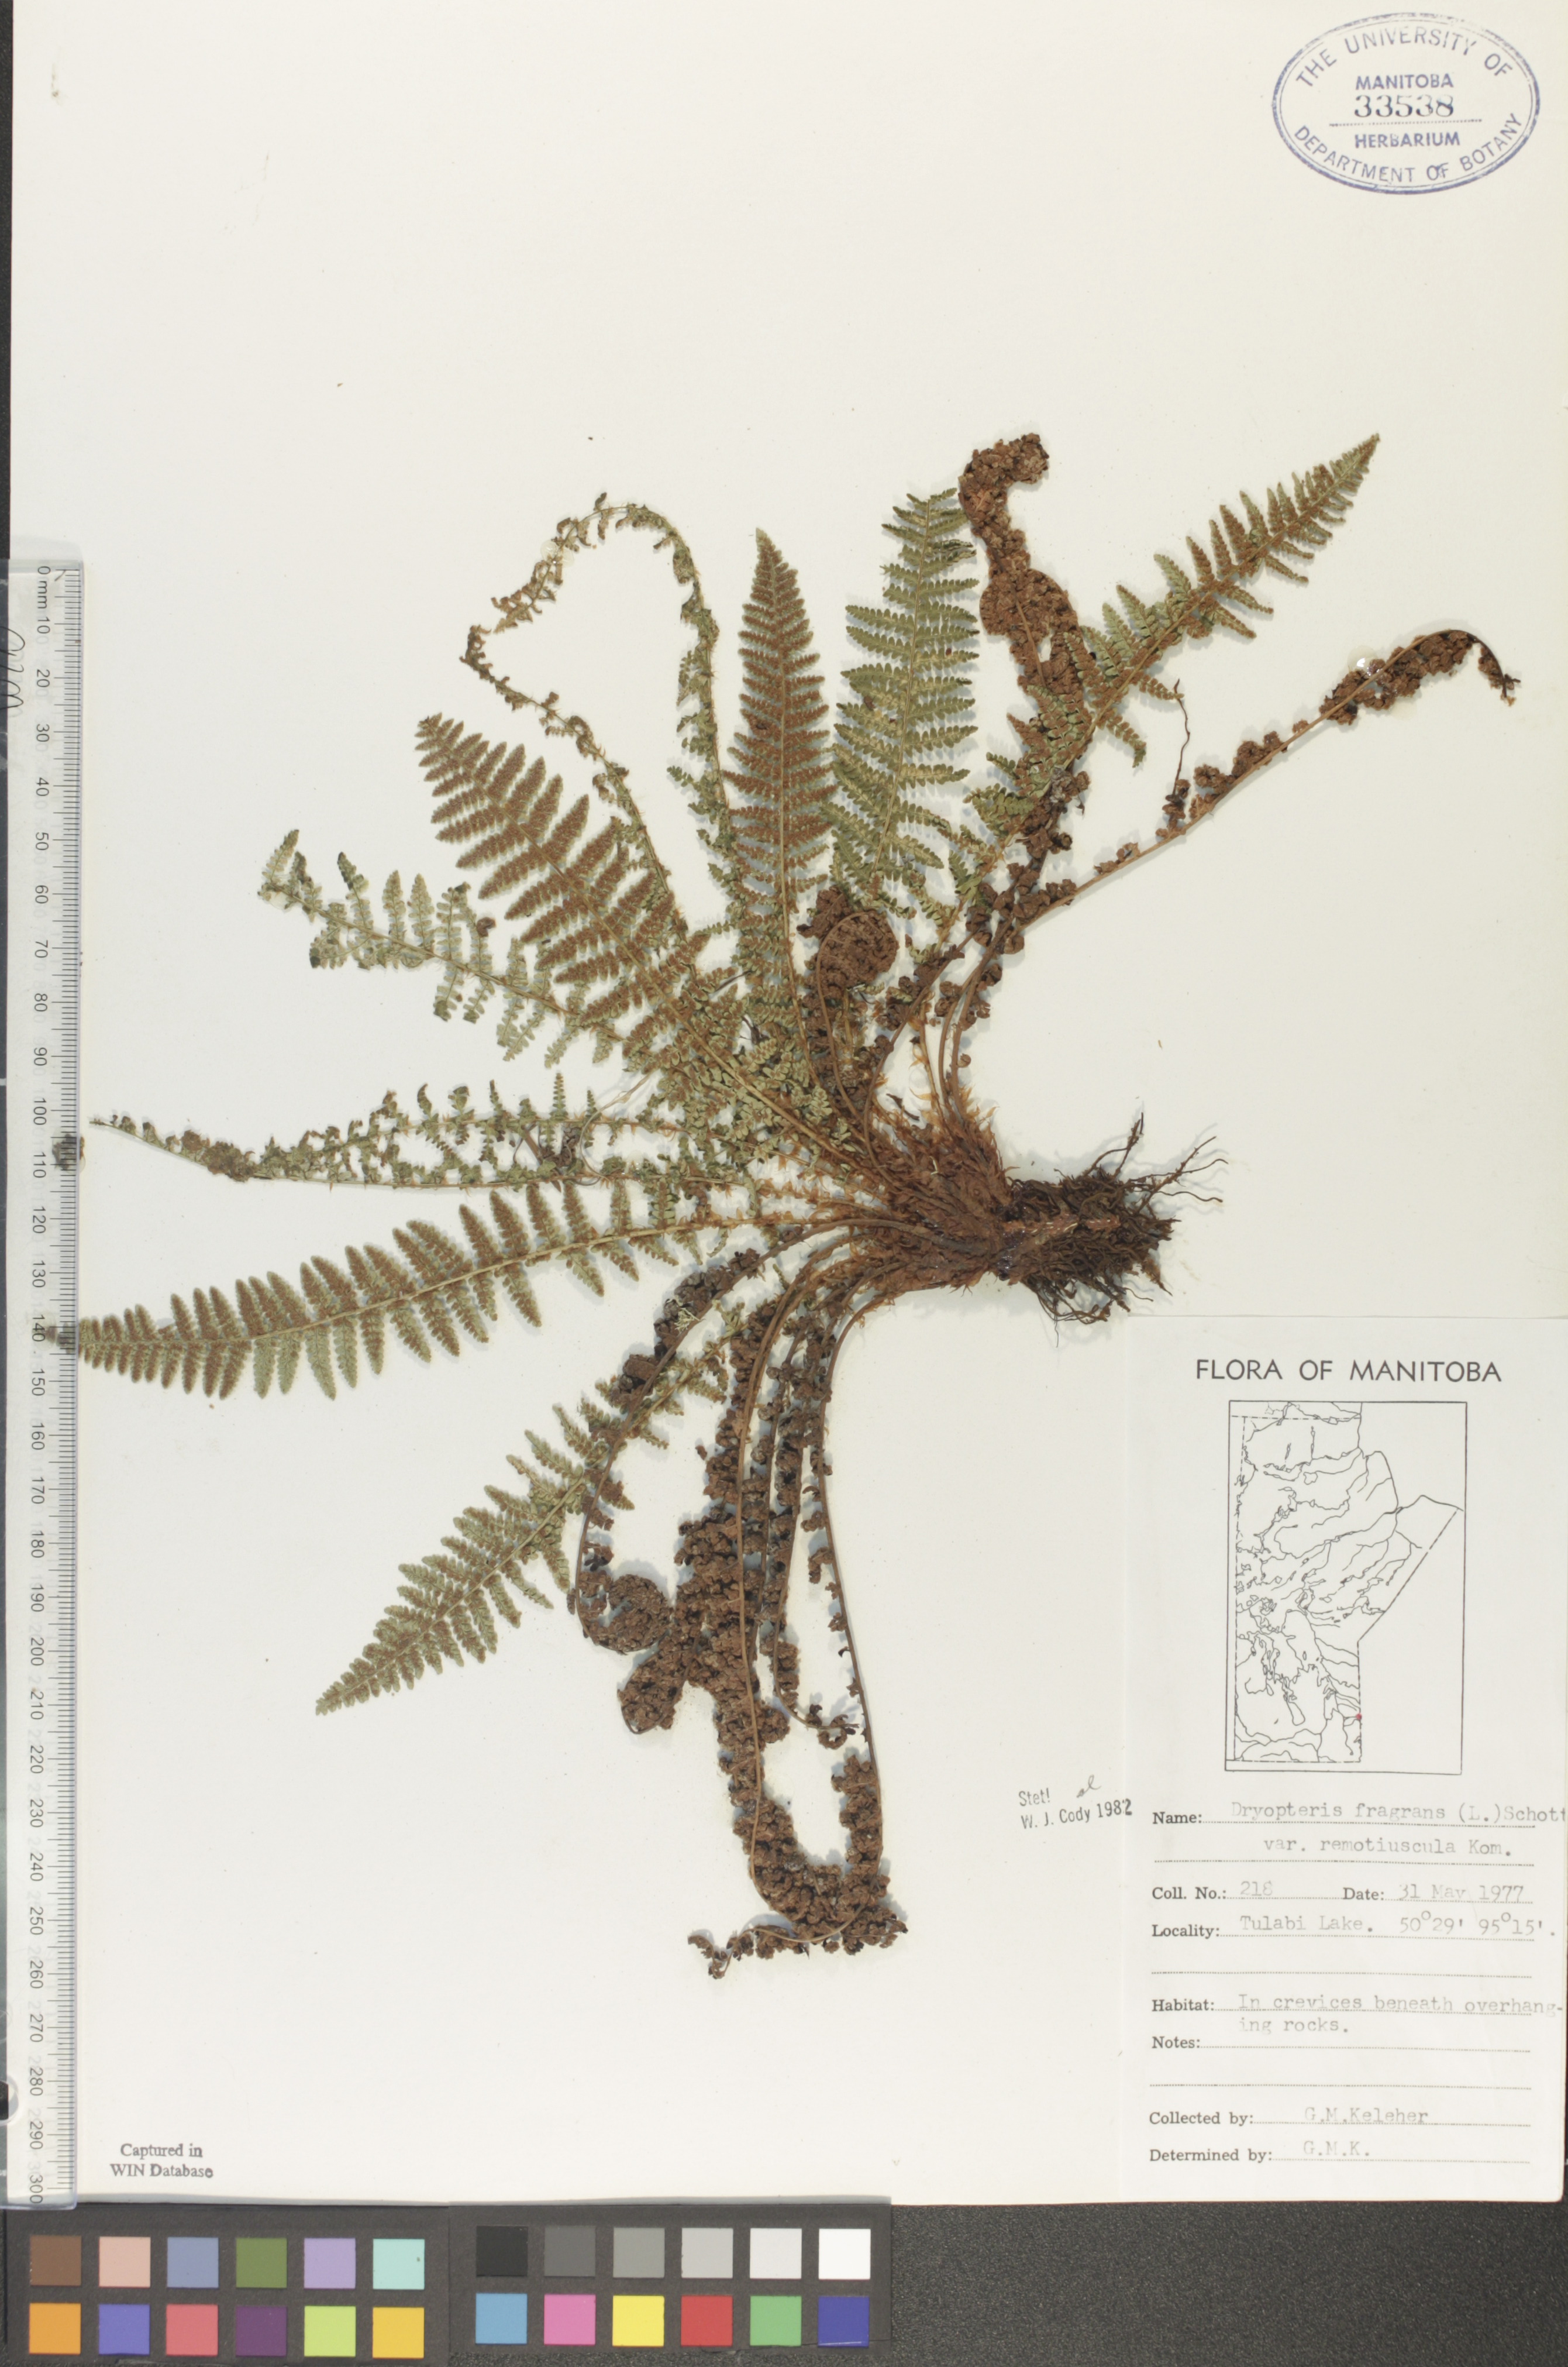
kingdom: Plantae
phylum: Tracheophyta
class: Polypodiopsida
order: Polypodiales
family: Dryopteridaceae
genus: Dryopteris
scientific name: Dryopteris fragrans
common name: Fragrant wood fern
